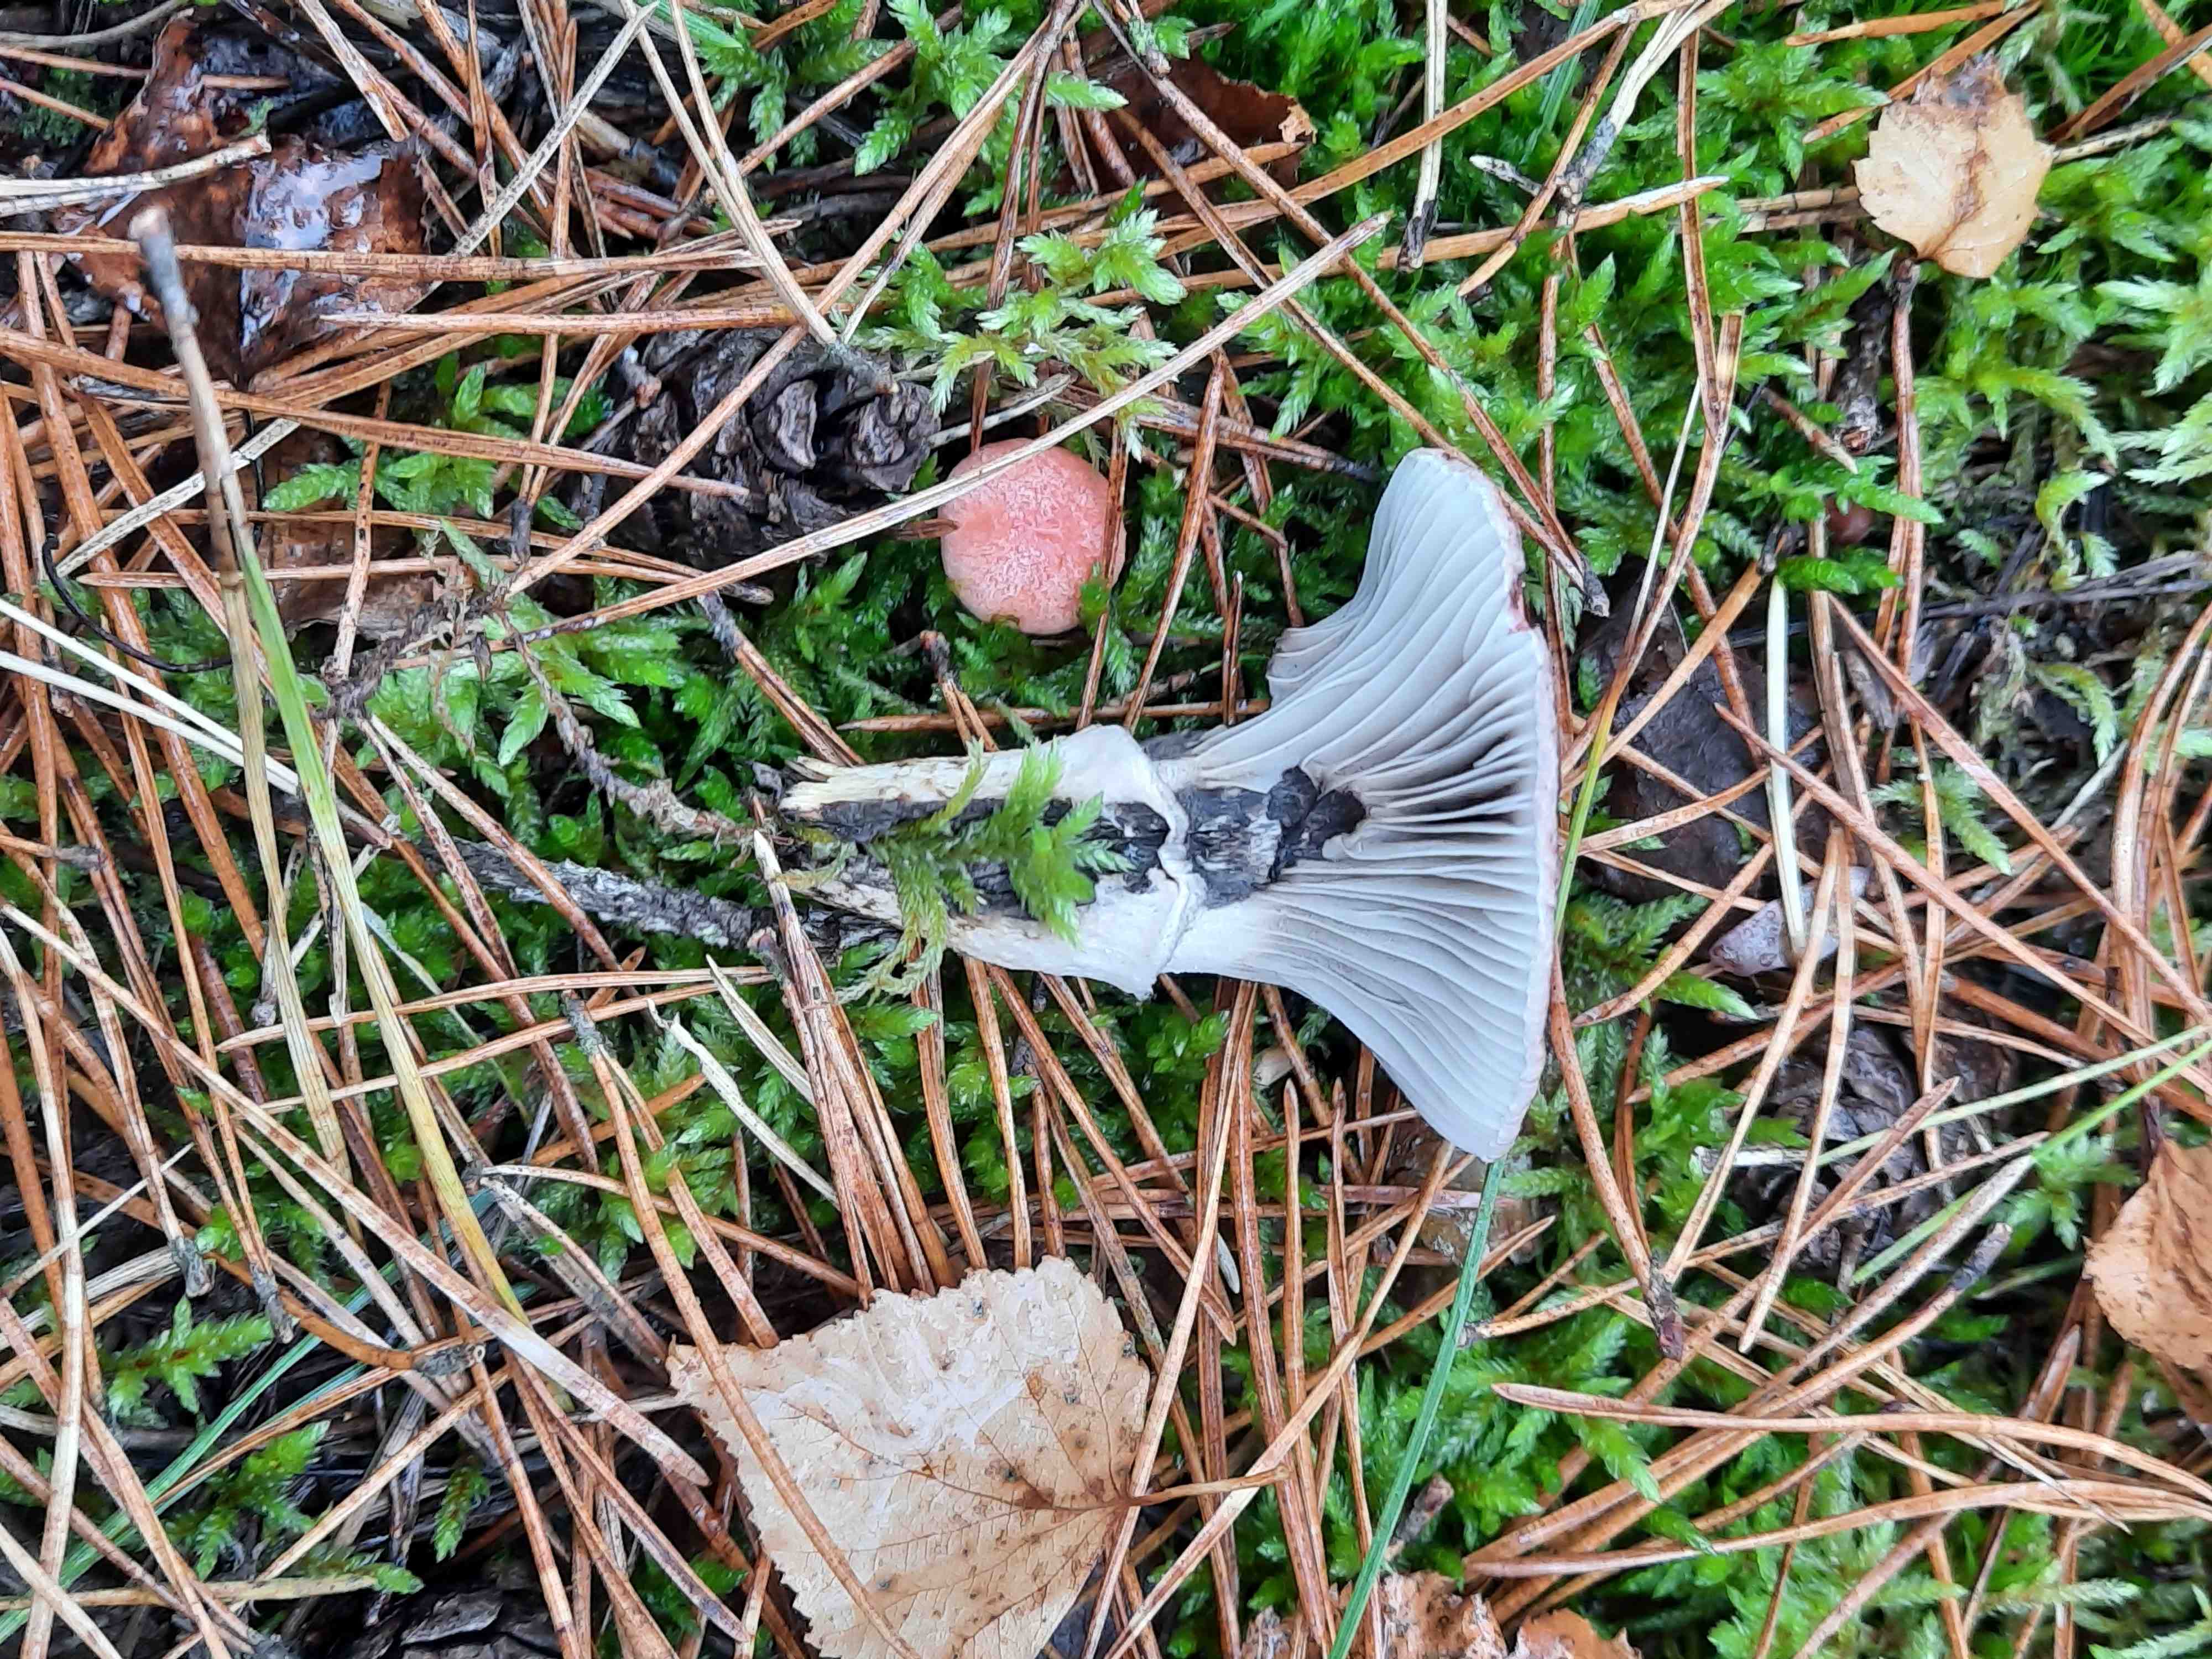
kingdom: Fungi
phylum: Basidiomycota
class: Agaricomycetes
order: Boletales
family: Gomphidiaceae
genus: Gomphidius
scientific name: Gomphidius roseus
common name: rosenrød slimslør
